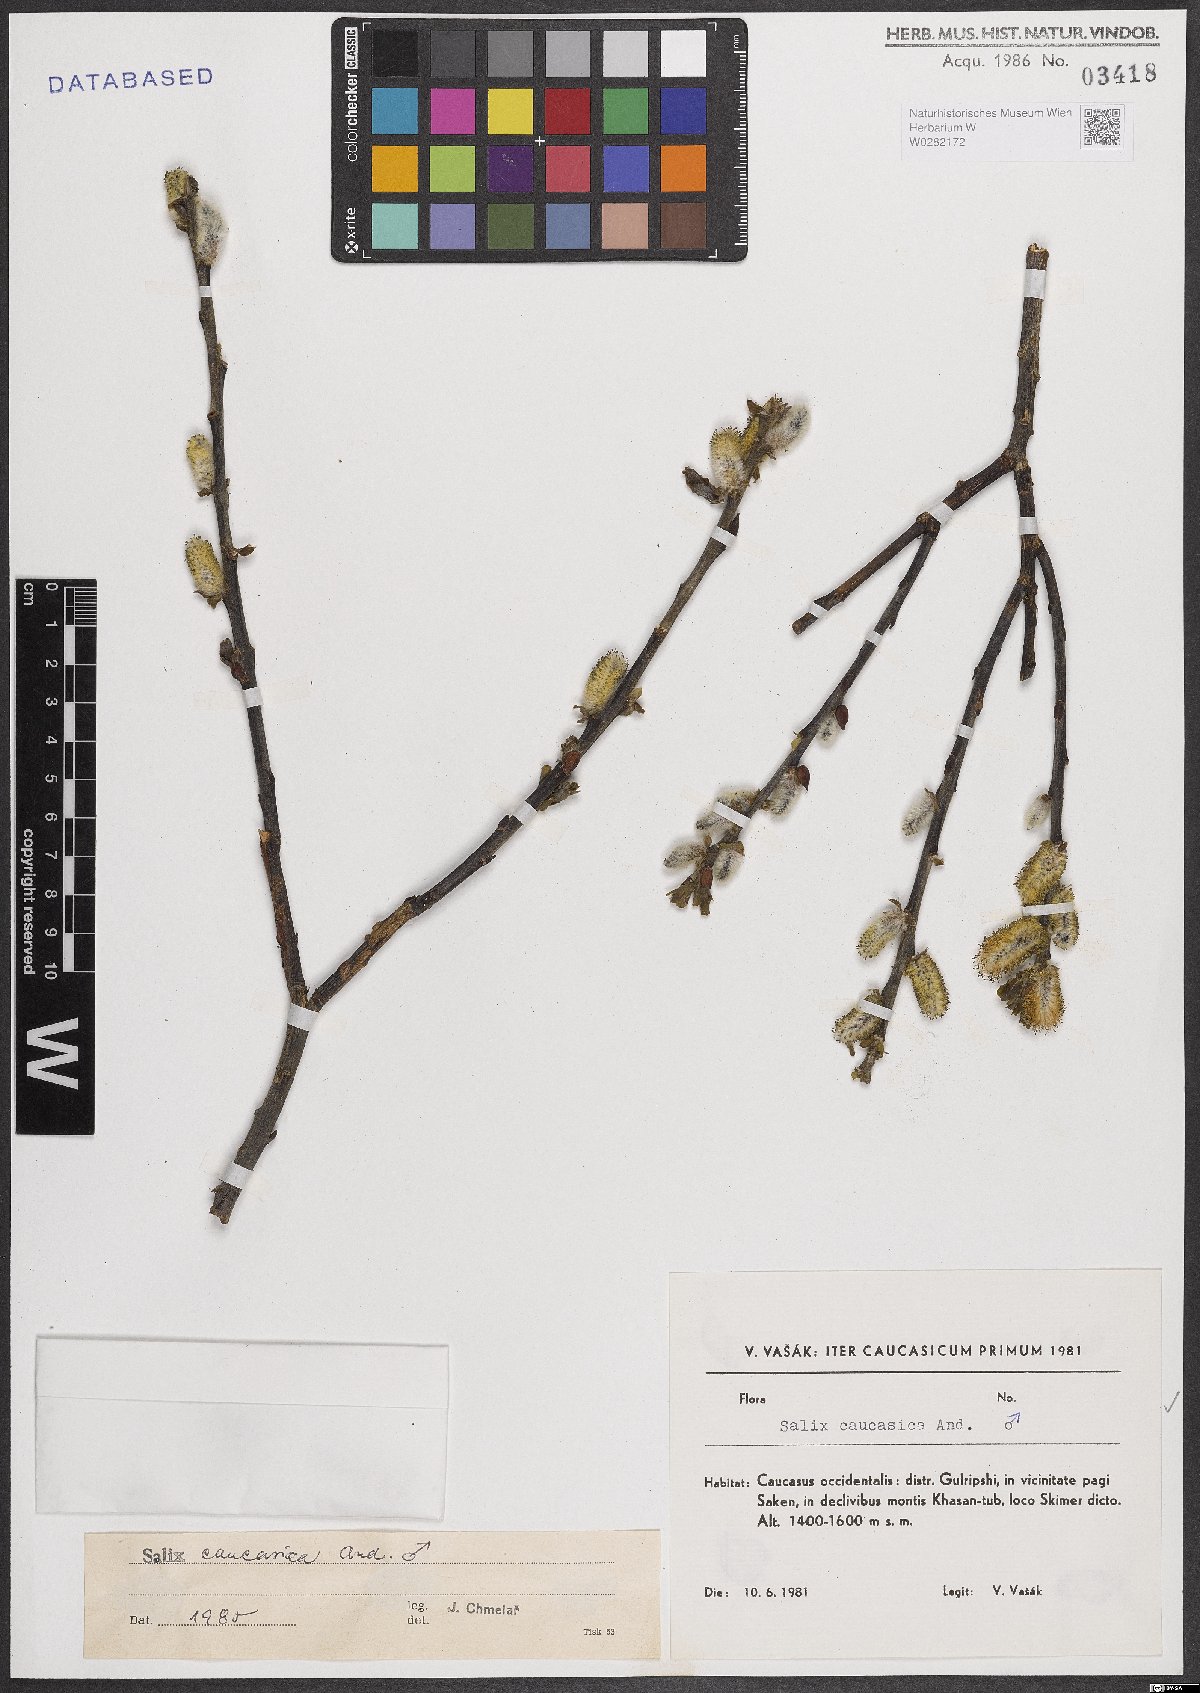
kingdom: Plantae
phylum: Tracheophyta
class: Magnoliopsida
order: Malpighiales
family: Salicaceae
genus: Salix
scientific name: Salix caucasica
